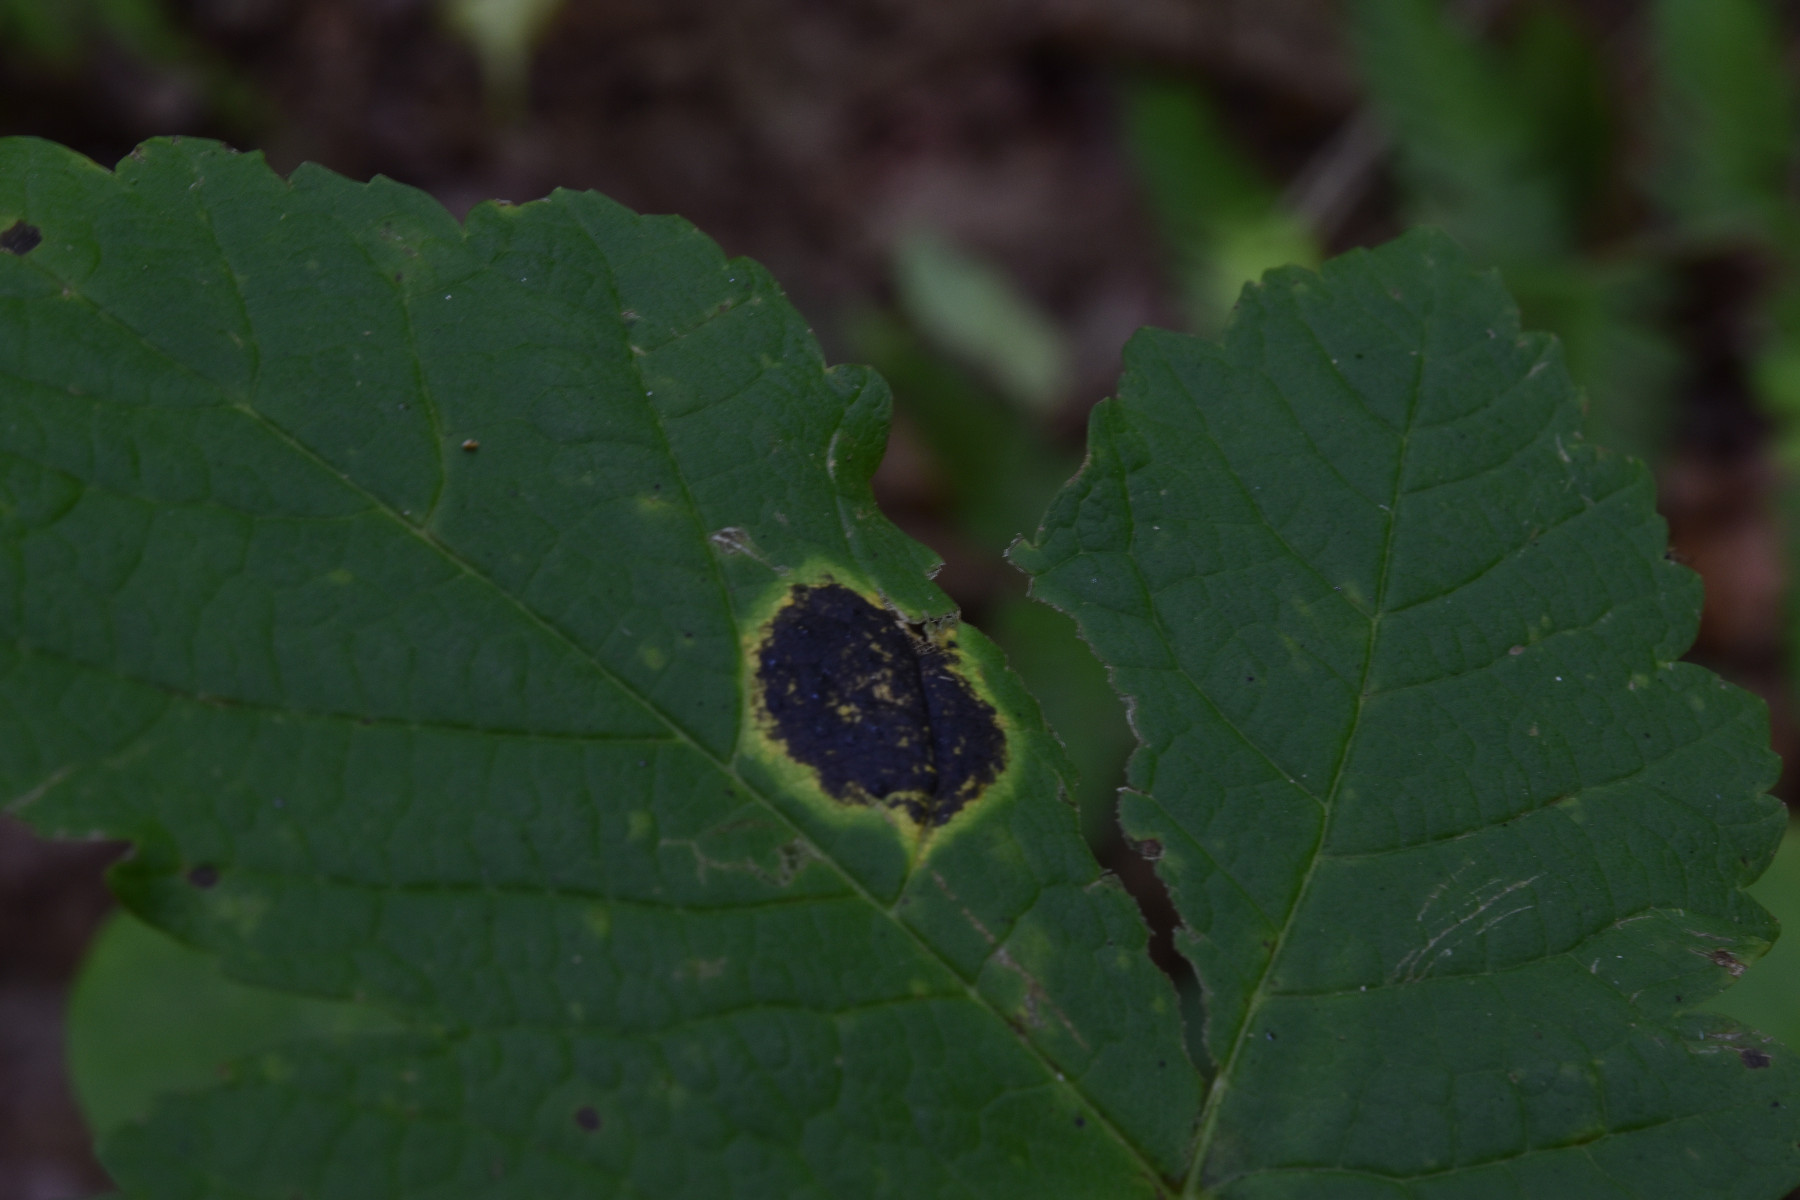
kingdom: Fungi
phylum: Ascomycota
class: Leotiomycetes
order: Rhytismatales
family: Rhytismataceae
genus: Rhytisma
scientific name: Rhytisma acerinum
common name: ahorn-rynkeplet
